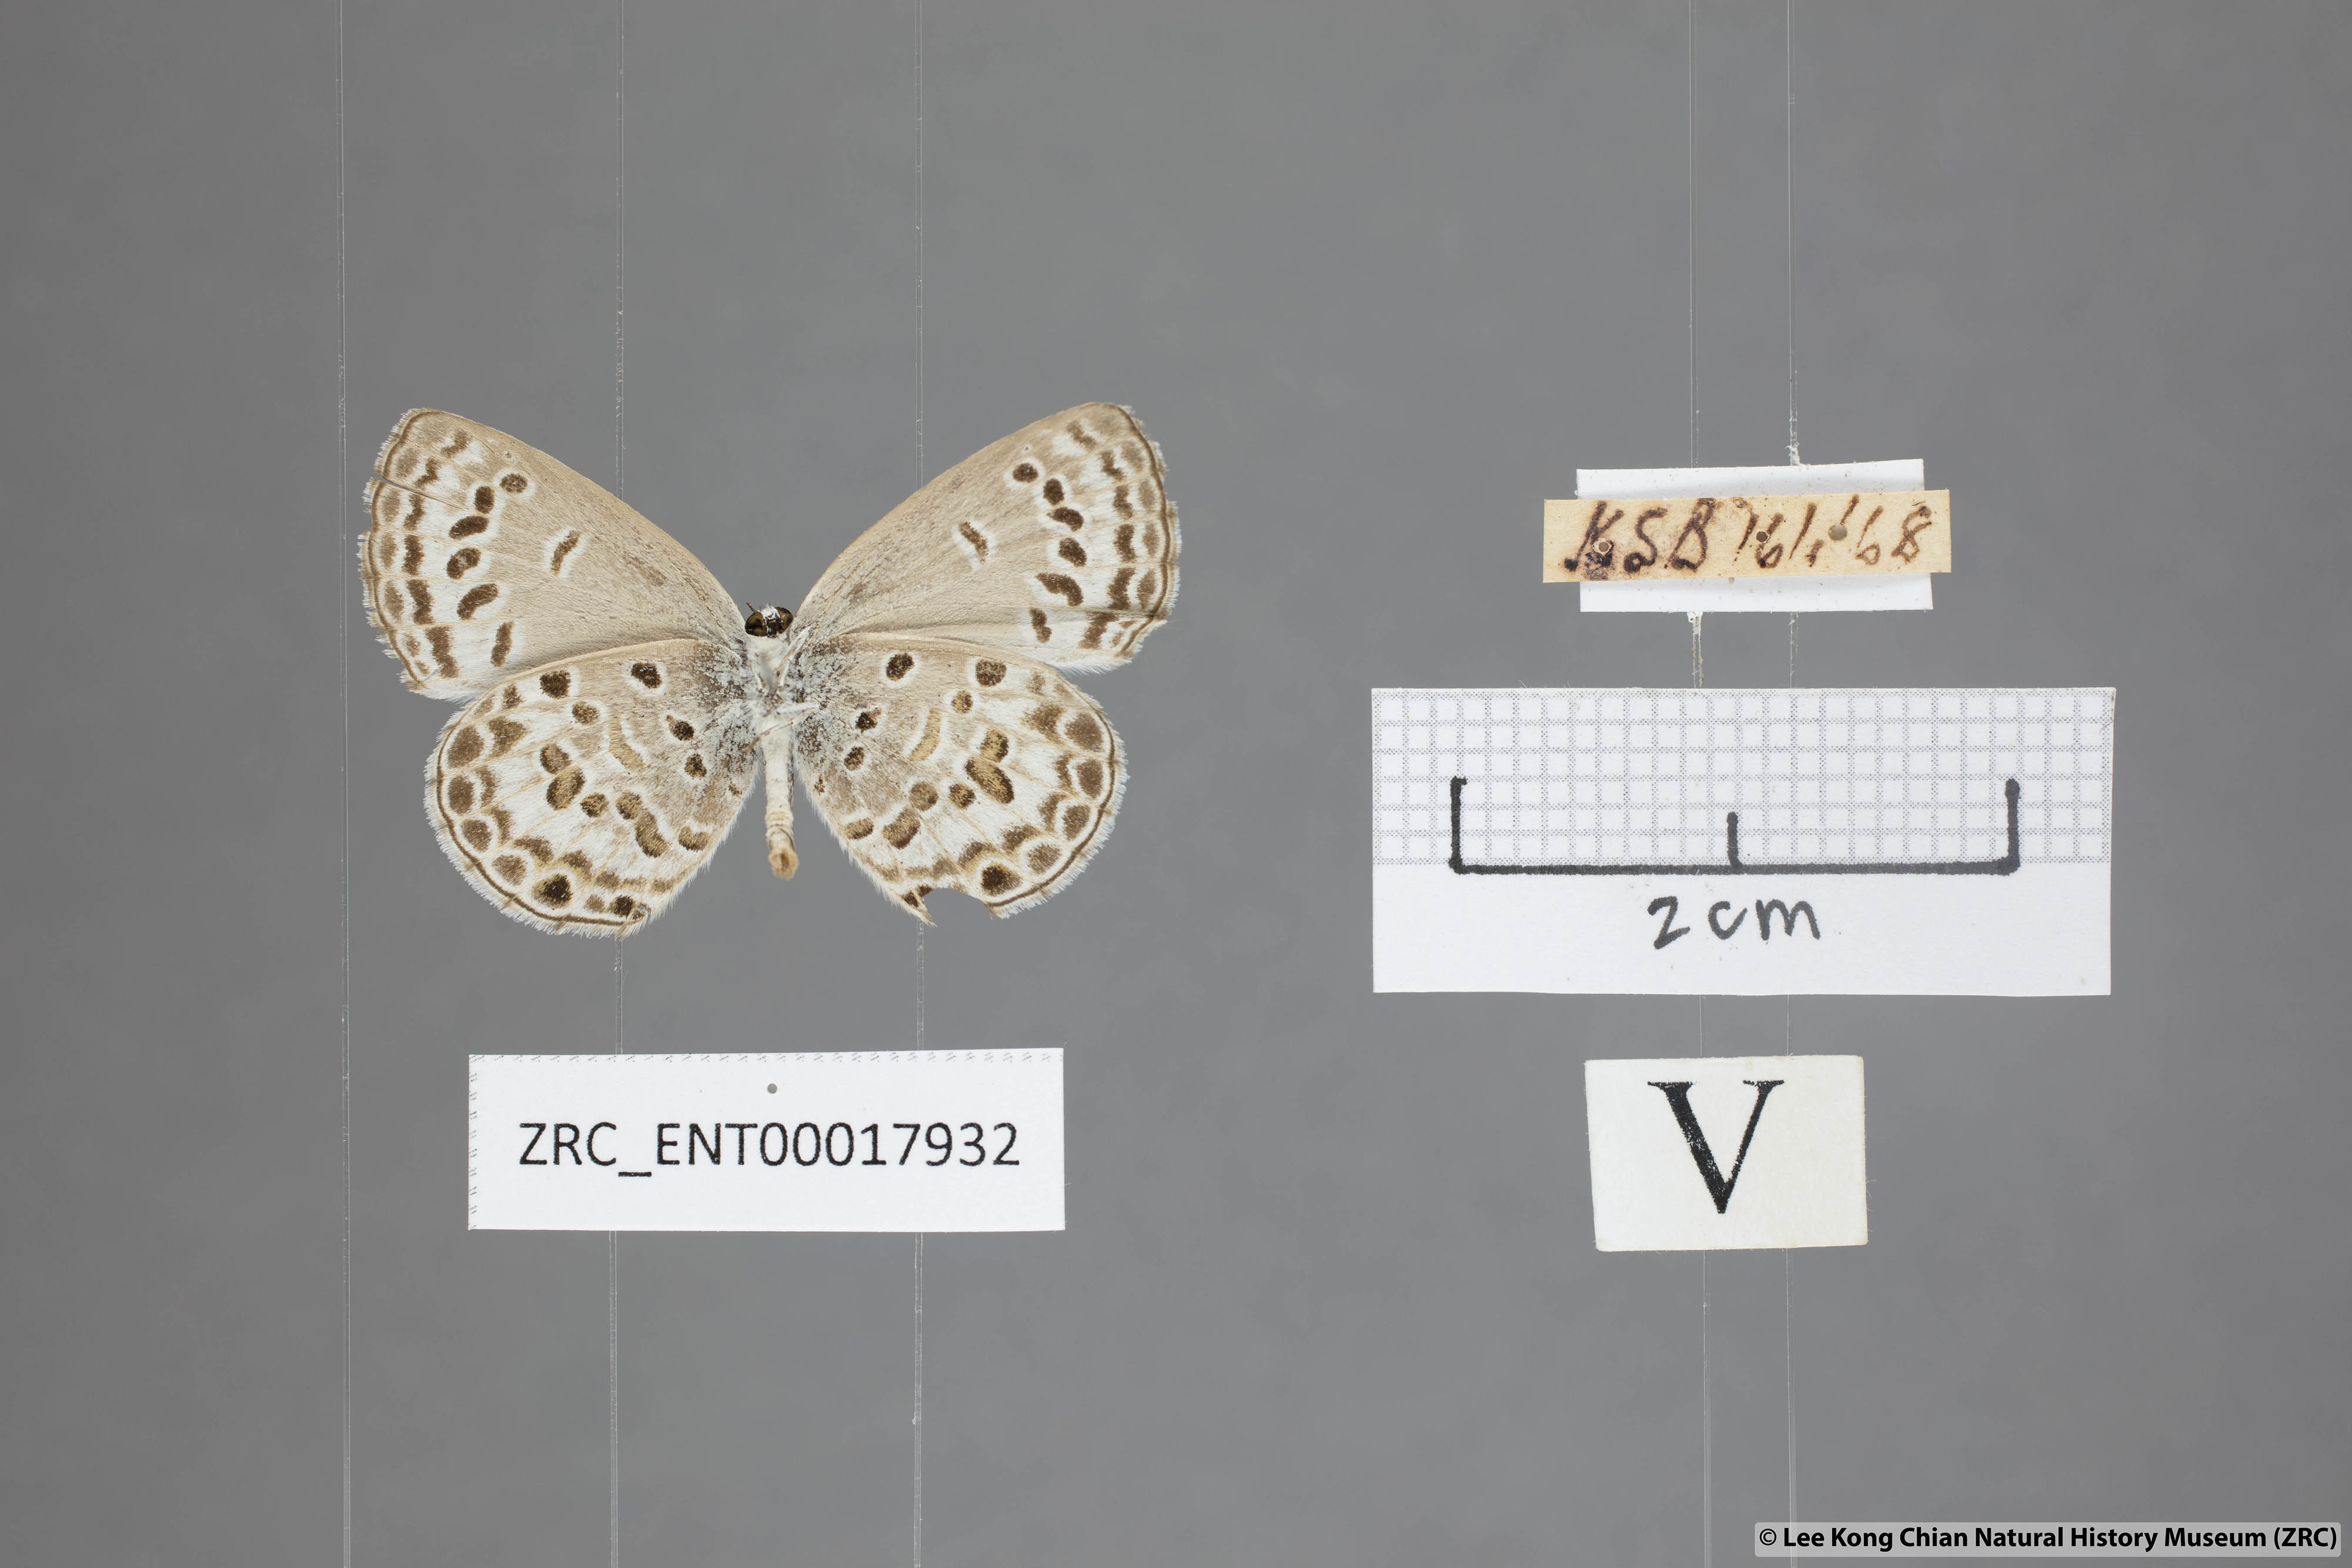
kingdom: Animalia
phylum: Arthropoda
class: Insecta
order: Lepidoptera
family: Lycaenidae
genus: Chilades
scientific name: Chilades laius
